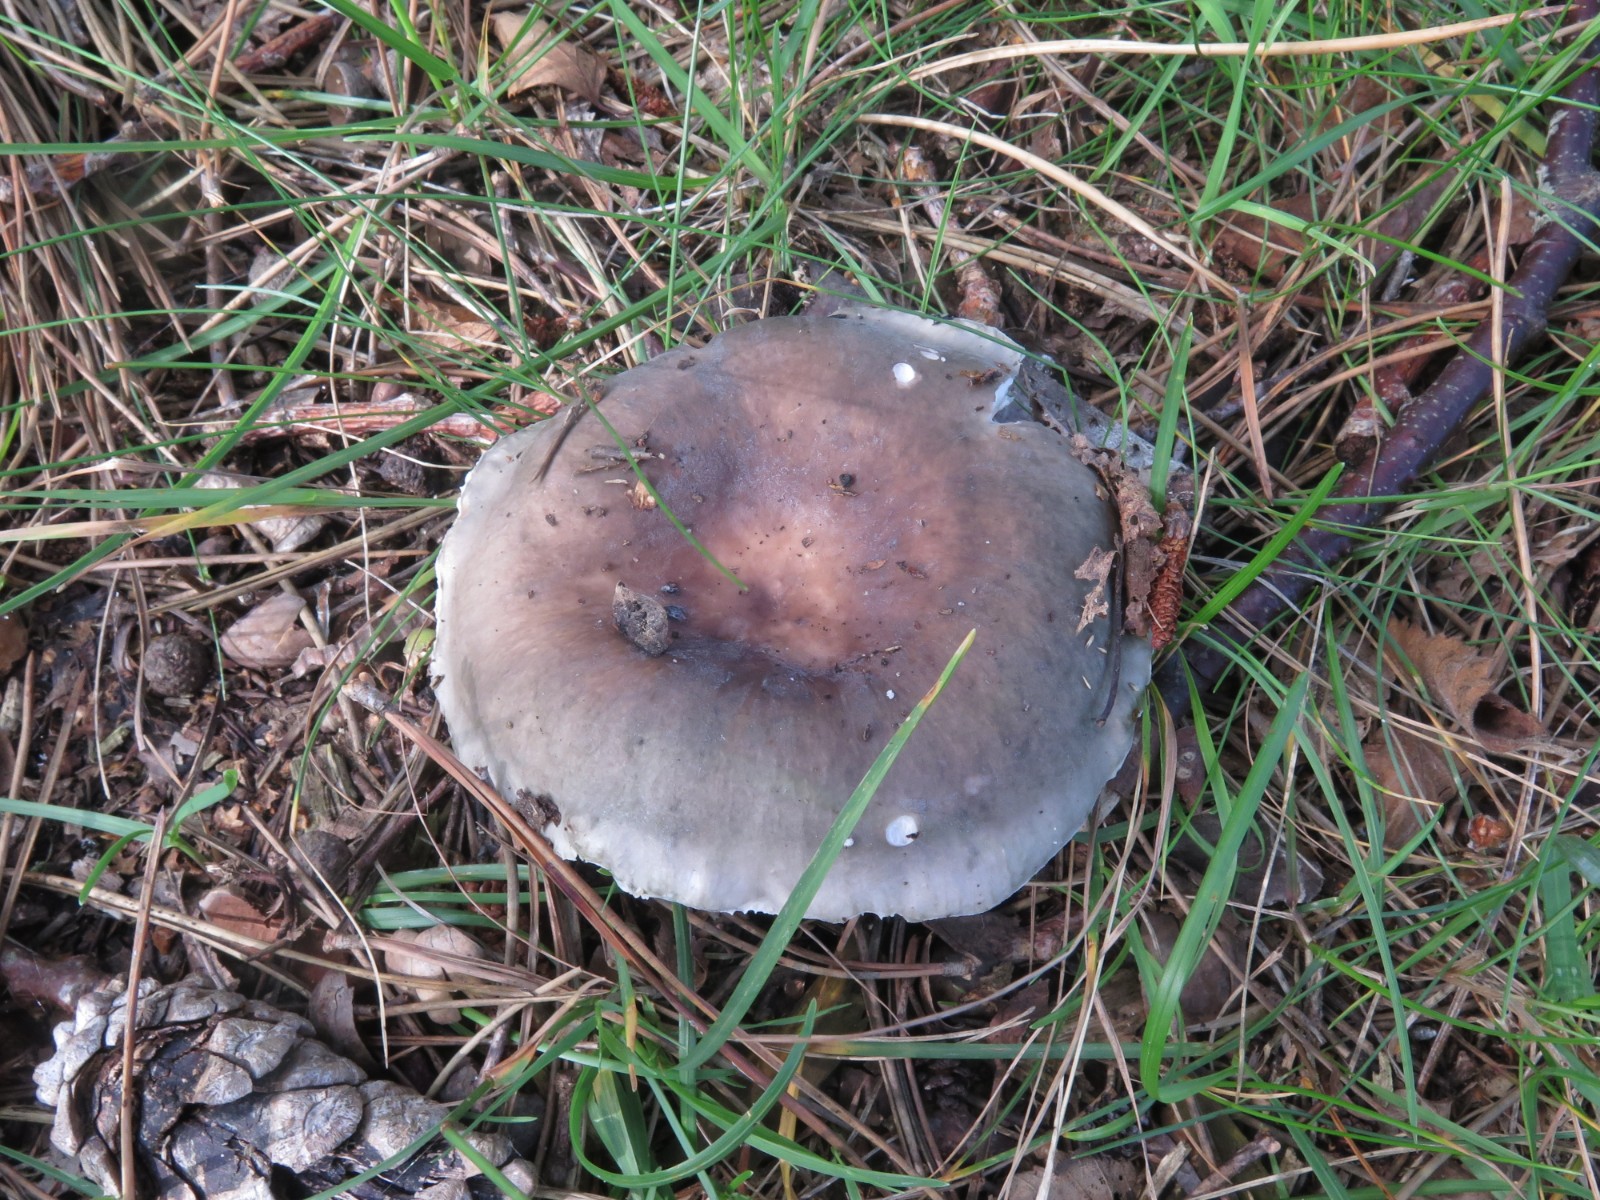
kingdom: Fungi
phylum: Basidiomycota
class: Agaricomycetes
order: Russulales
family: Russulaceae
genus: Russula
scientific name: Russula cyanoxantha
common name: broget skørhat
